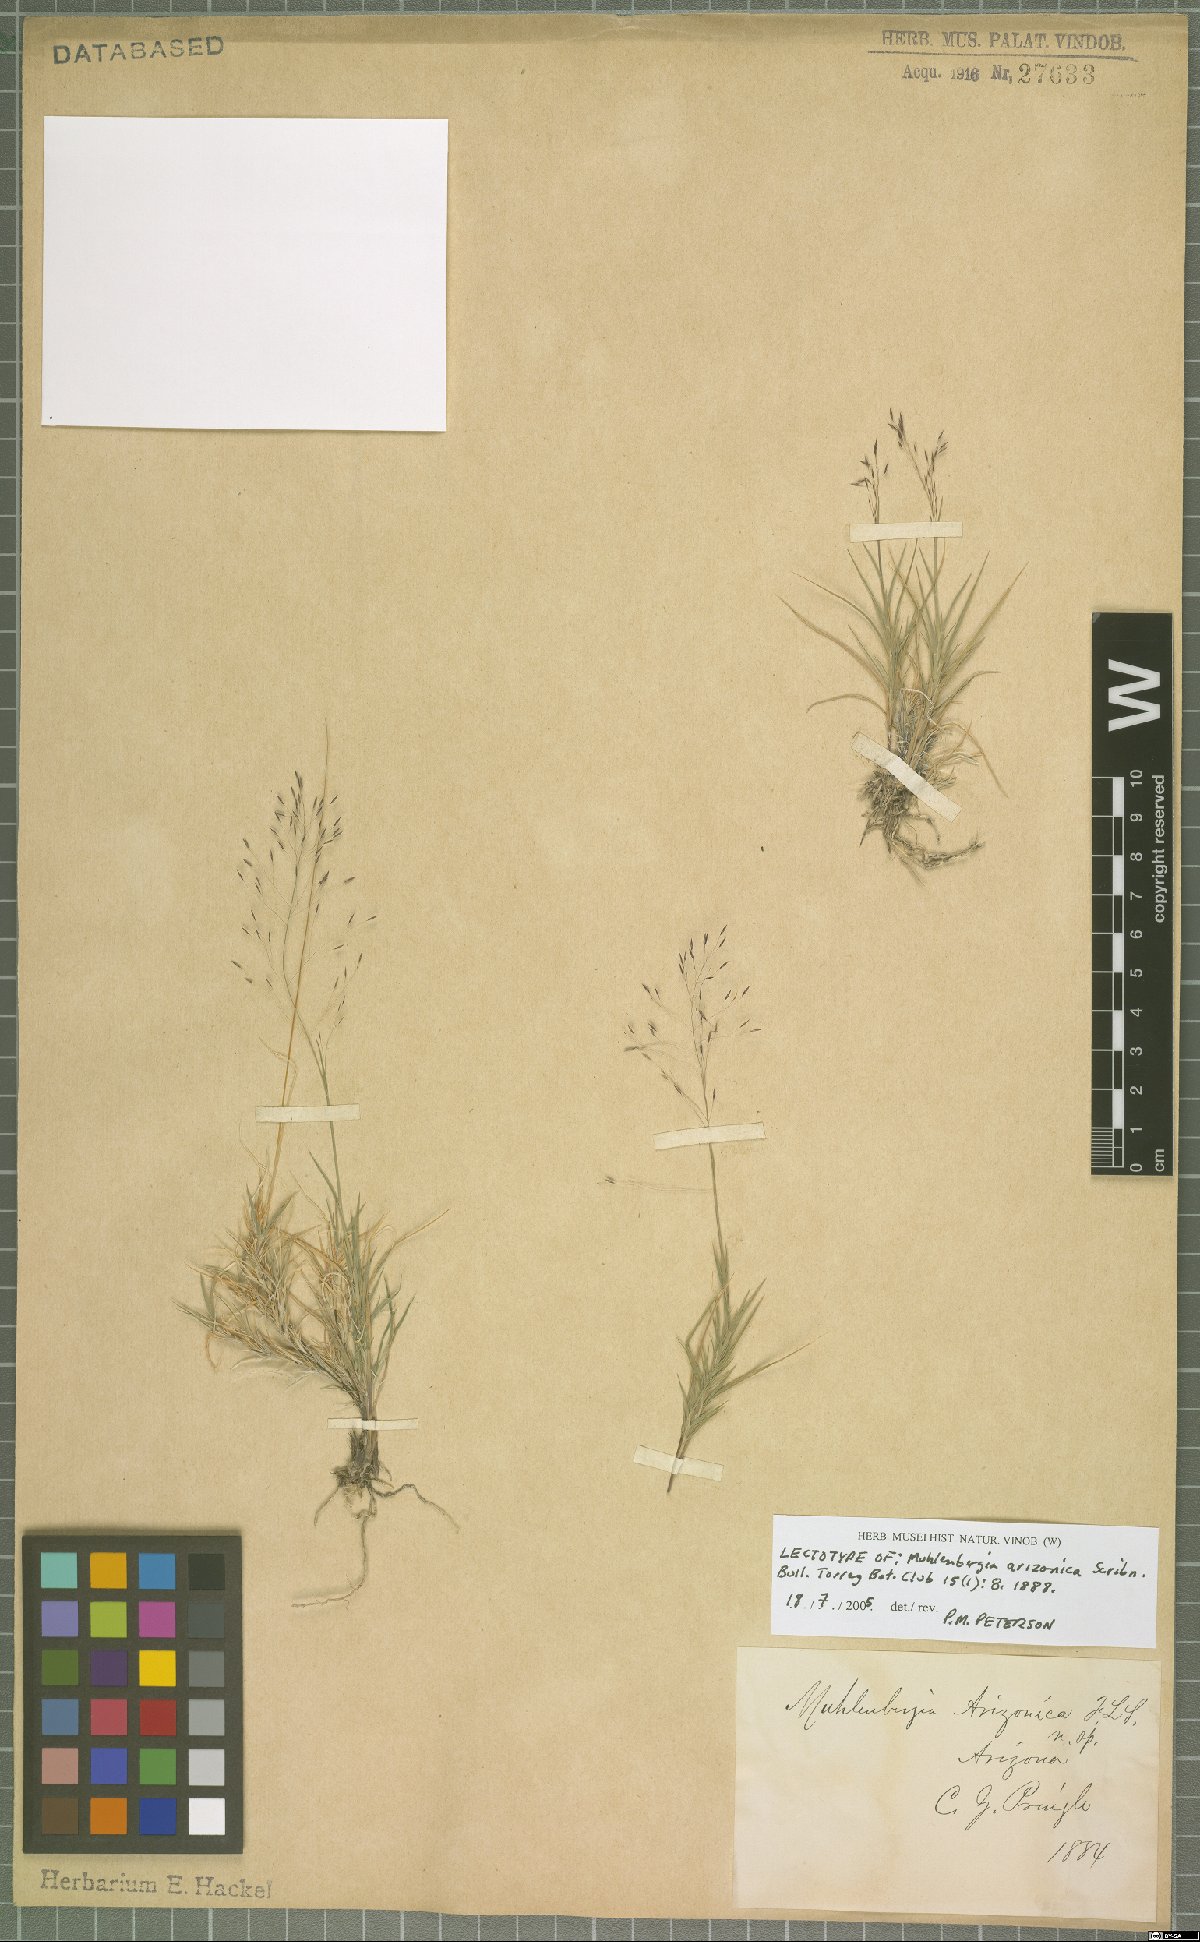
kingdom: Plantae
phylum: Tracheophyta
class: Liliopsida
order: Poales
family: Poaceae
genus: Muhlenbergia
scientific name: Muhlenbergia arizonica
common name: Arizona muhly
